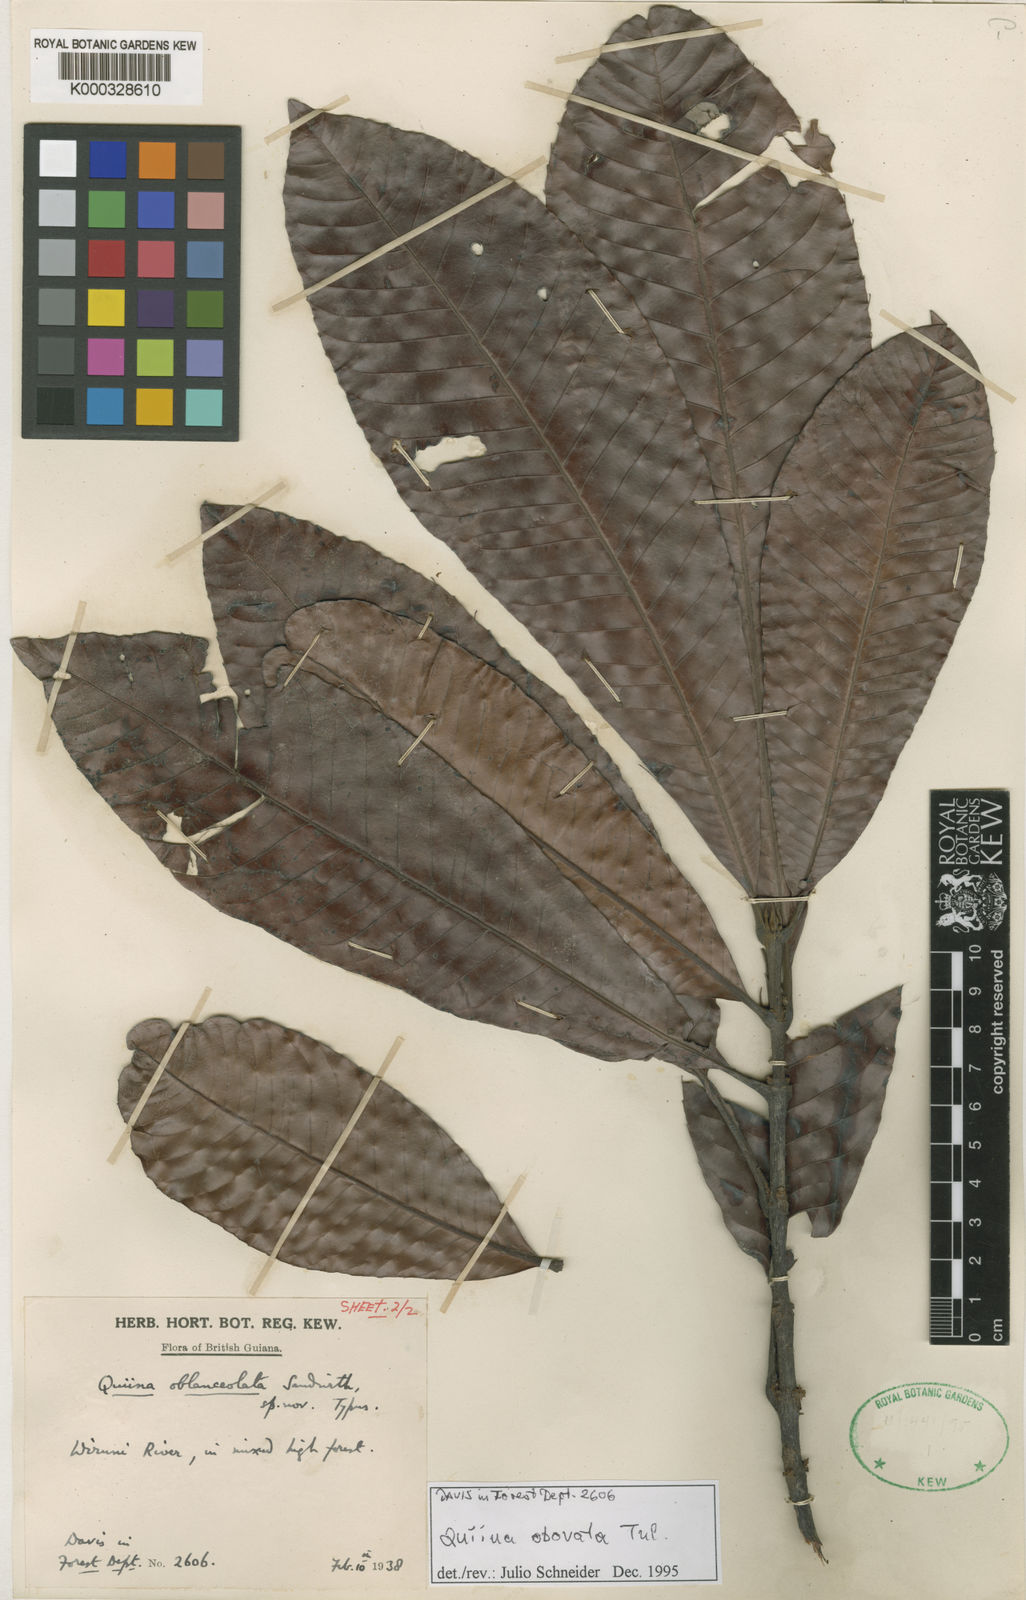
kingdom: Plantae
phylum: Tracheophyta
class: Magnoliopsida
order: Malpighiales
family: Quiinaceae
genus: Quiina
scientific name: Quiina obovata
